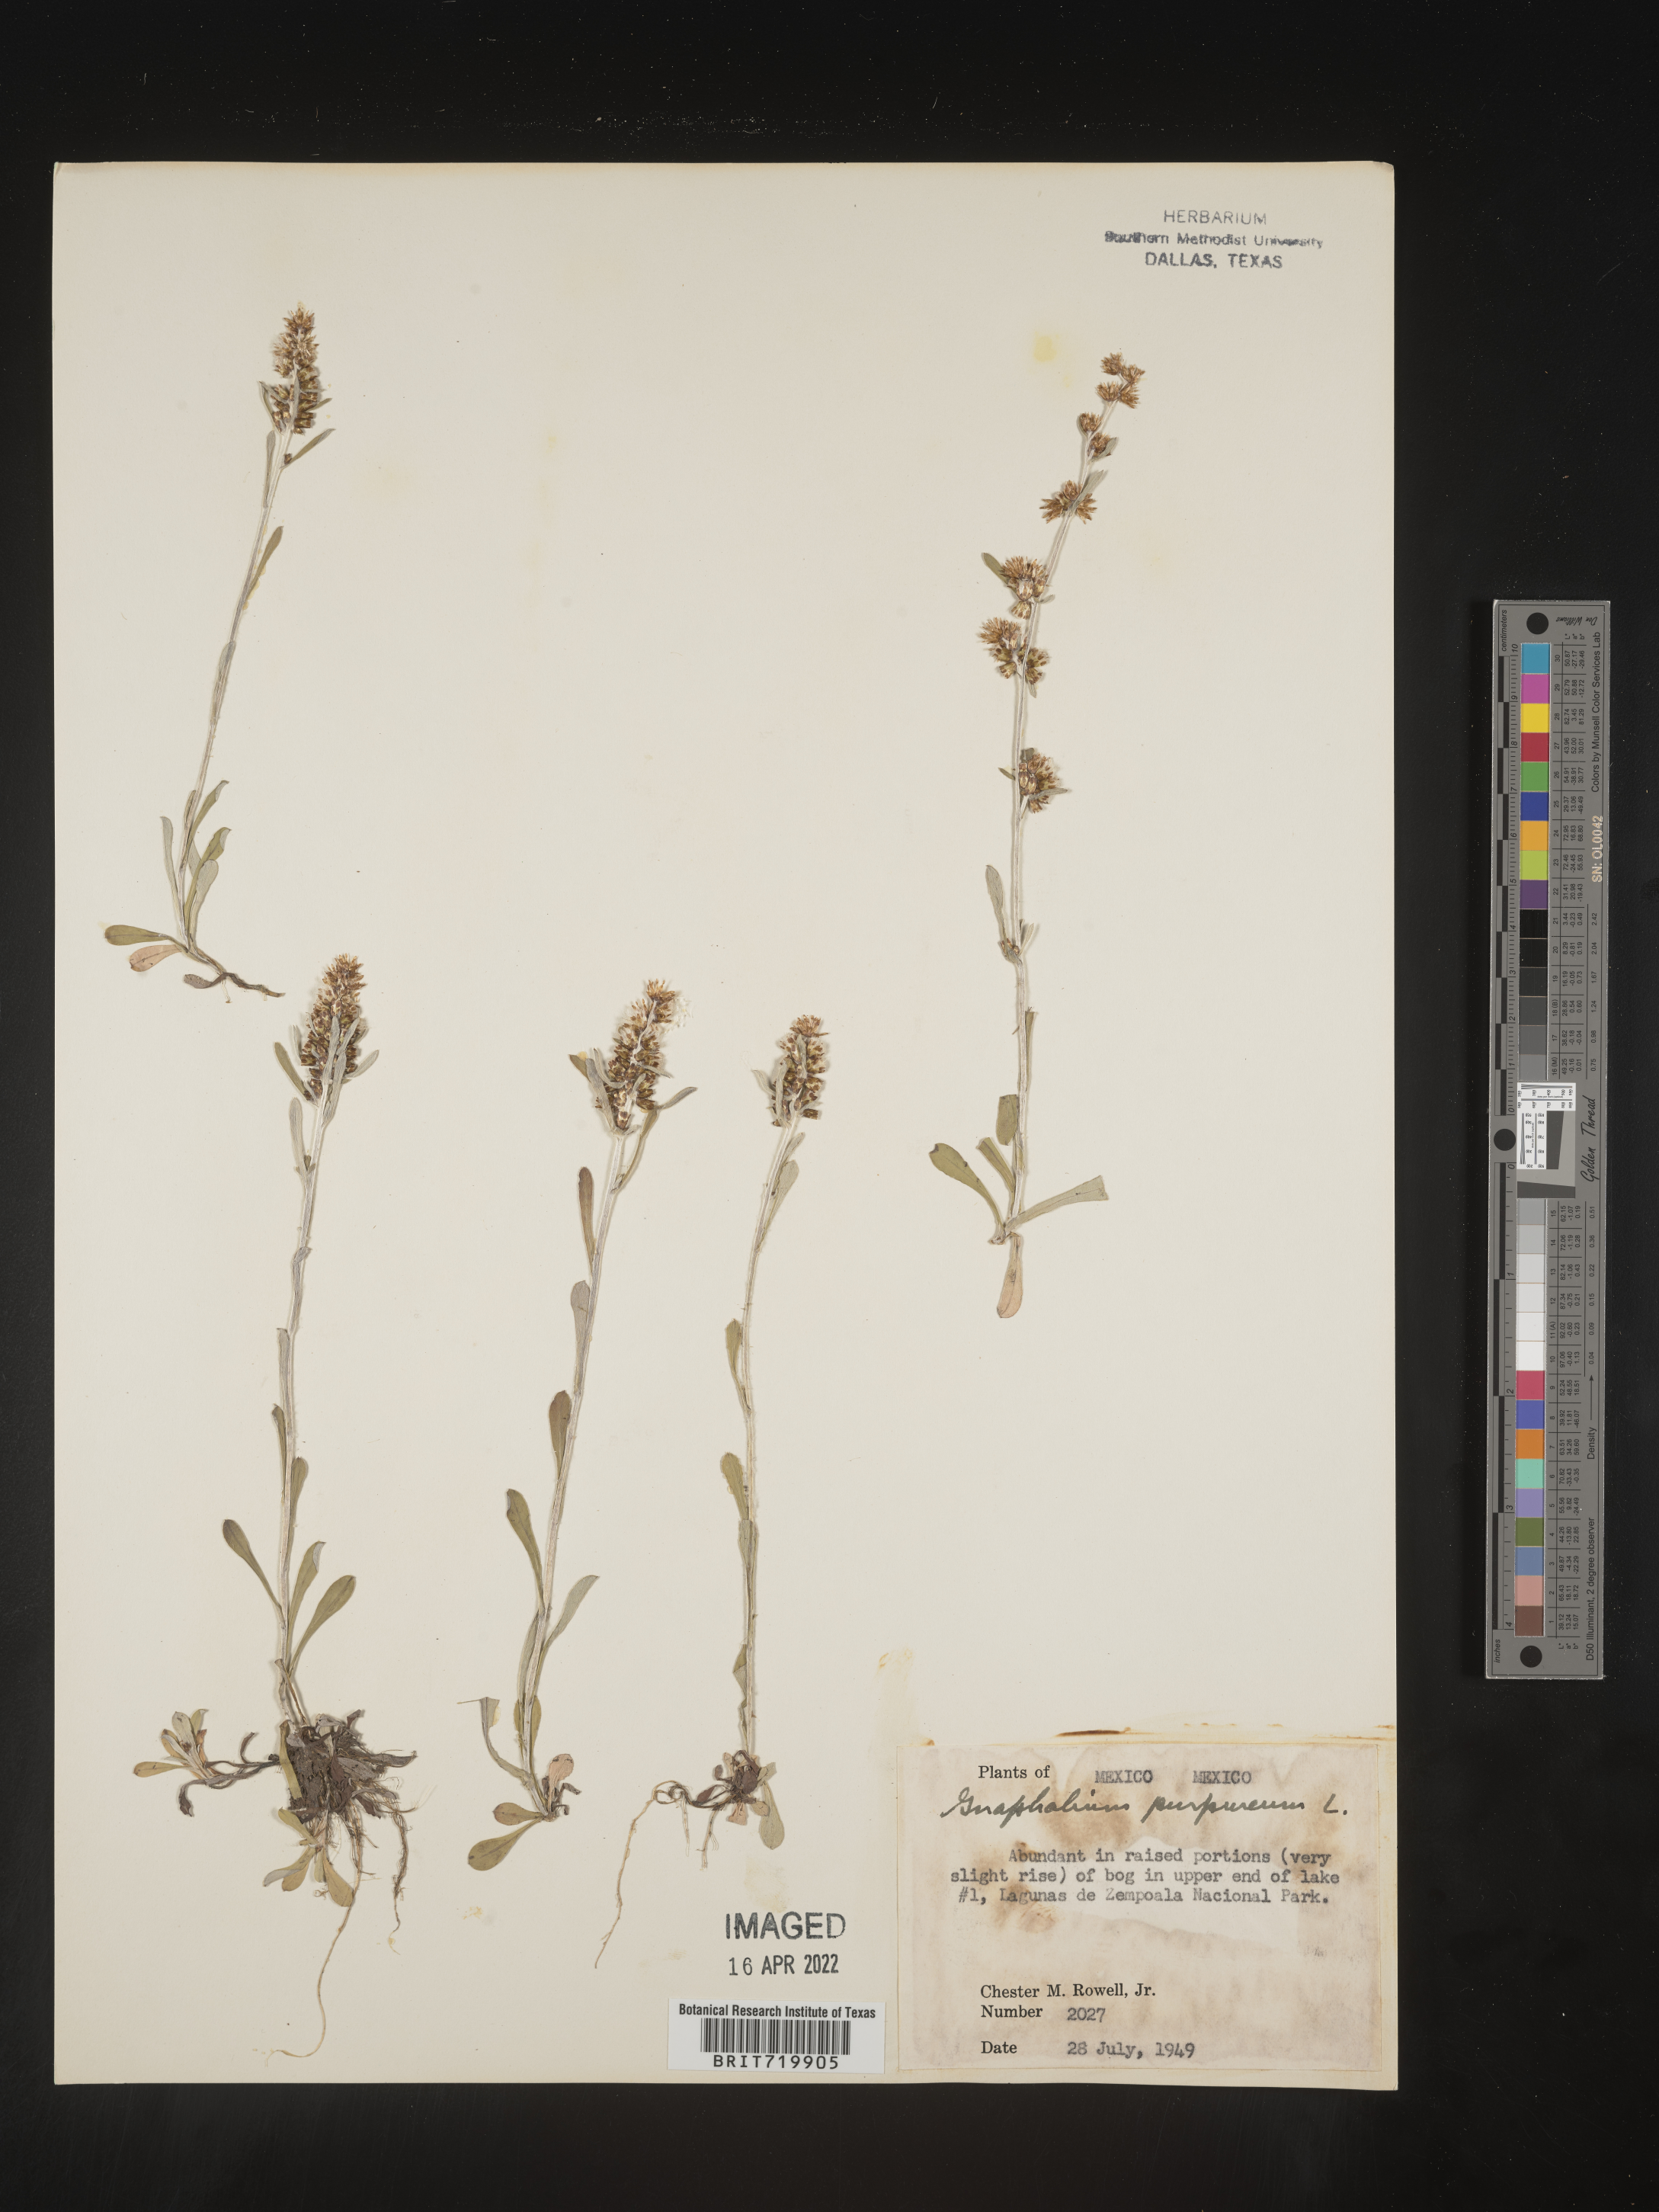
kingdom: Plantae
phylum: Tracheophyta
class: Magnoliopsida
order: Asterales
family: Asteraceae
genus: Gamochaeta
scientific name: Gamochaeta
